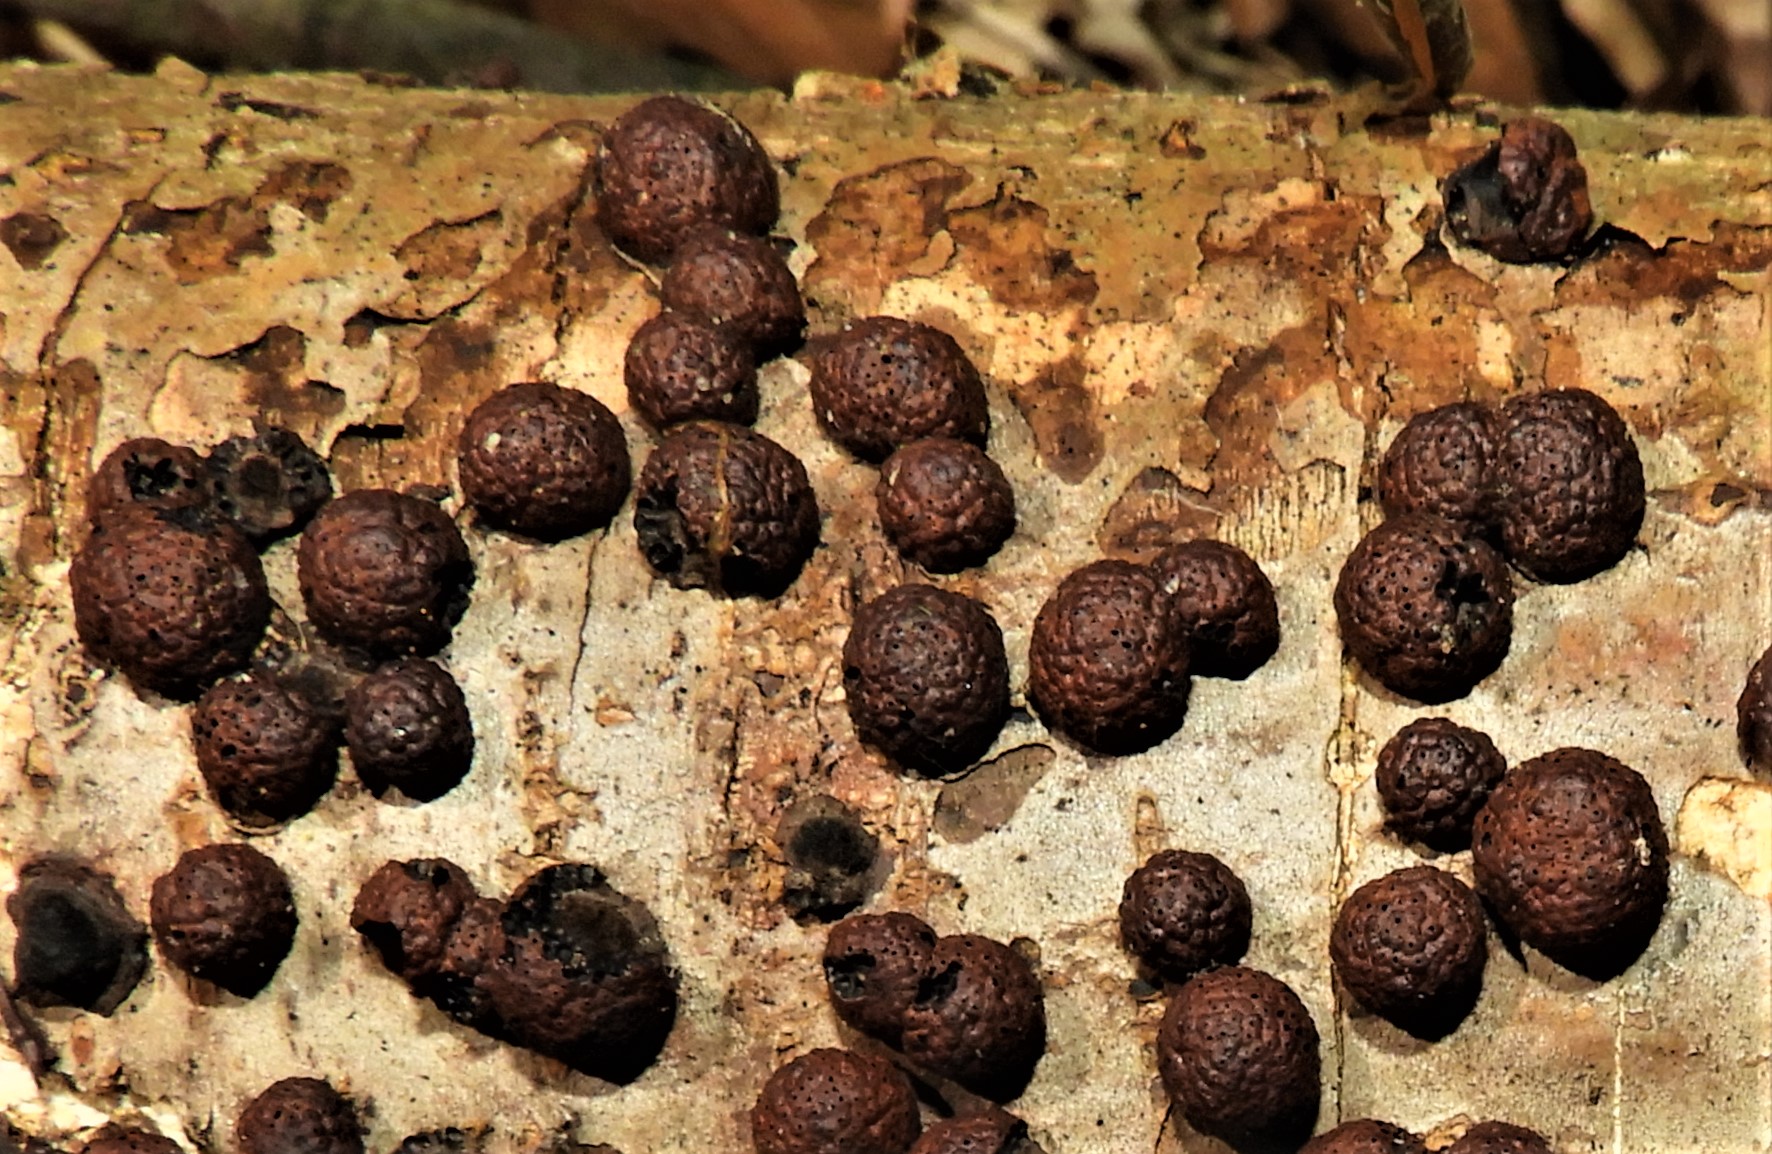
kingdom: Fungi
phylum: Ascomycota
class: Sordariomycetes
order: Xylariales
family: Hypoxylaceae
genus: Hypoxylon
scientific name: Hypoxylon fragiforme
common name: kuljordbær
